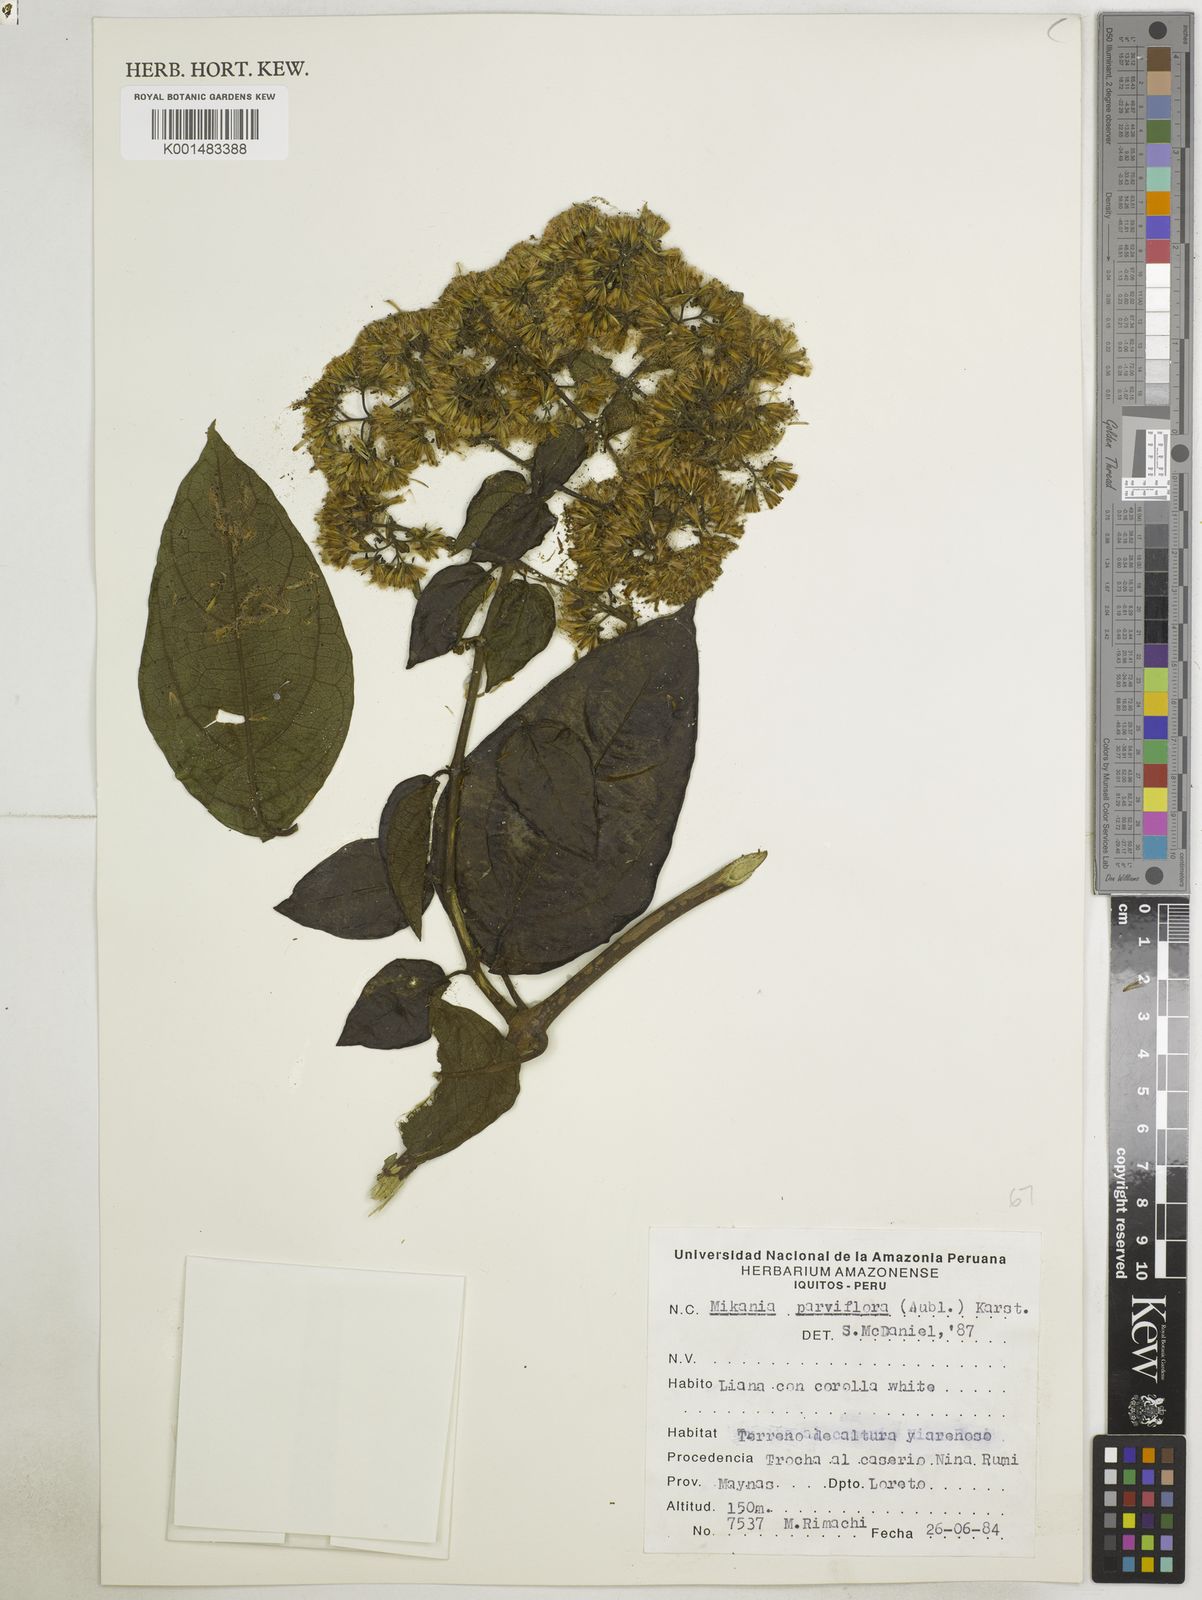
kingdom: Plantae
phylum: Tracheophyta
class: Magnoliopsida
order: Asterales
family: Asteraceae
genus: Mikania
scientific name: Mikania parviflora
